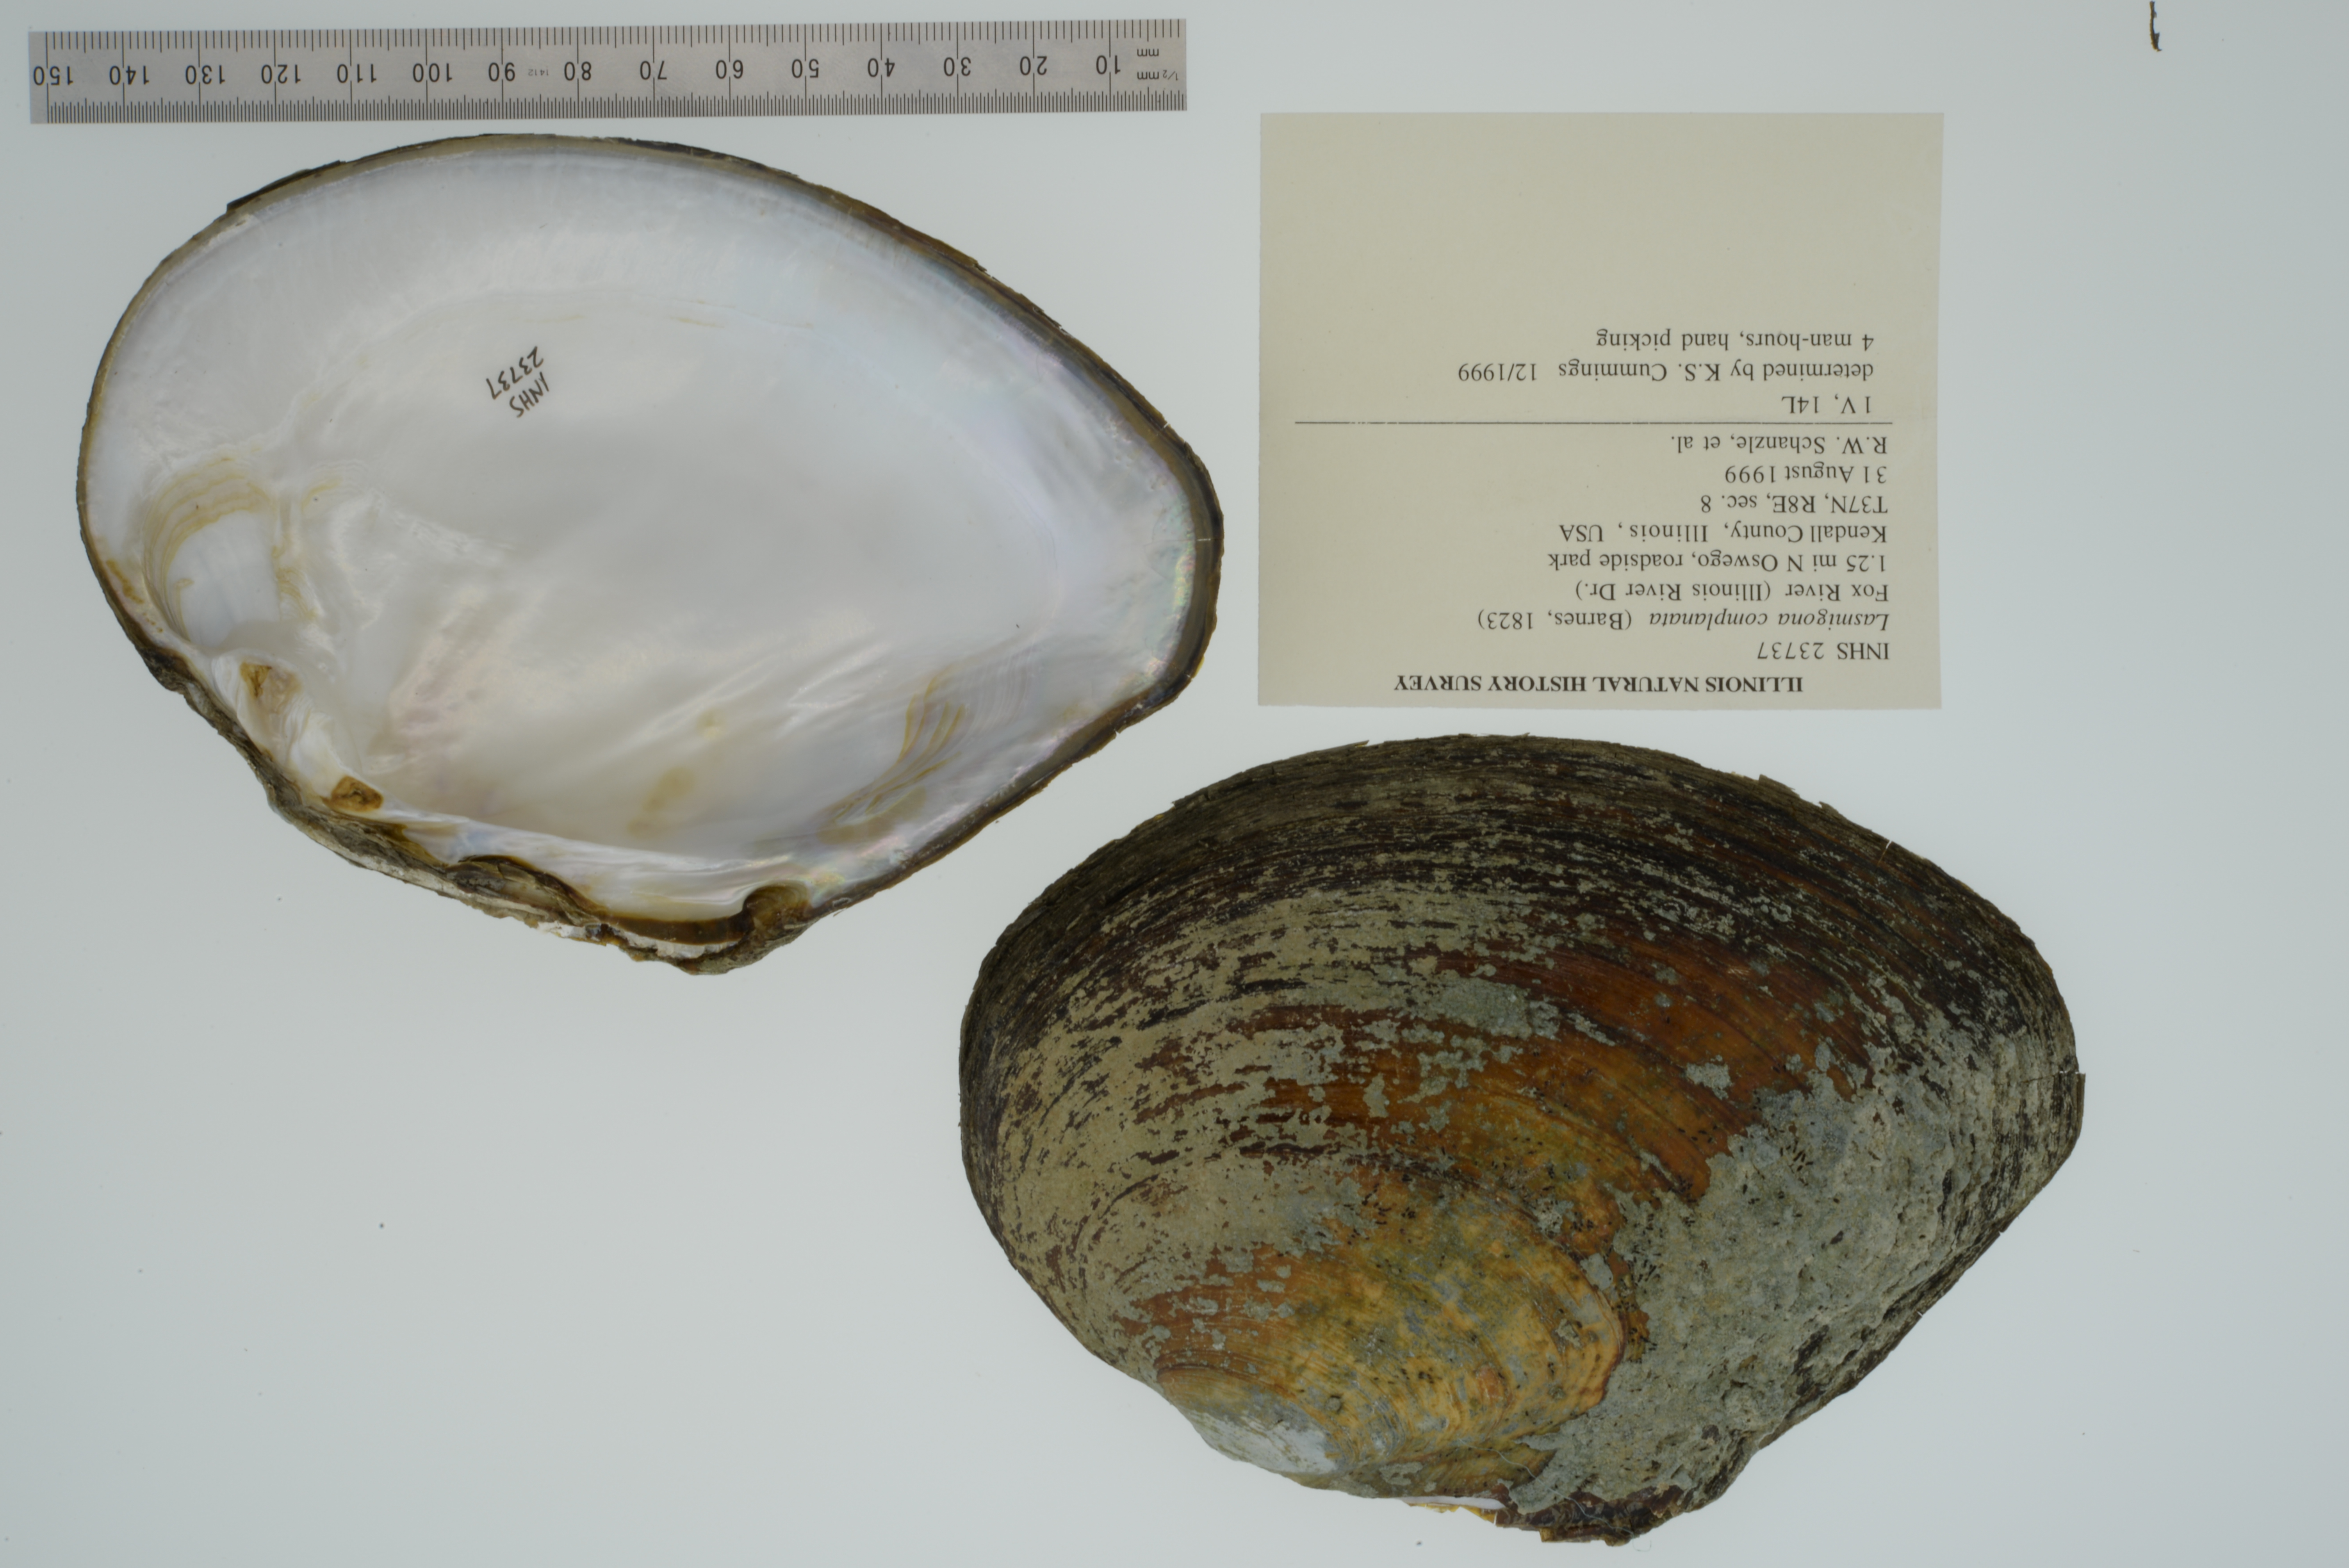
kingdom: Animalia
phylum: Mollusca
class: Bivalvia
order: Unionida
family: Unionidae
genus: Lasmigona
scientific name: Lasmigona complanata
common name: White heelsplitter
